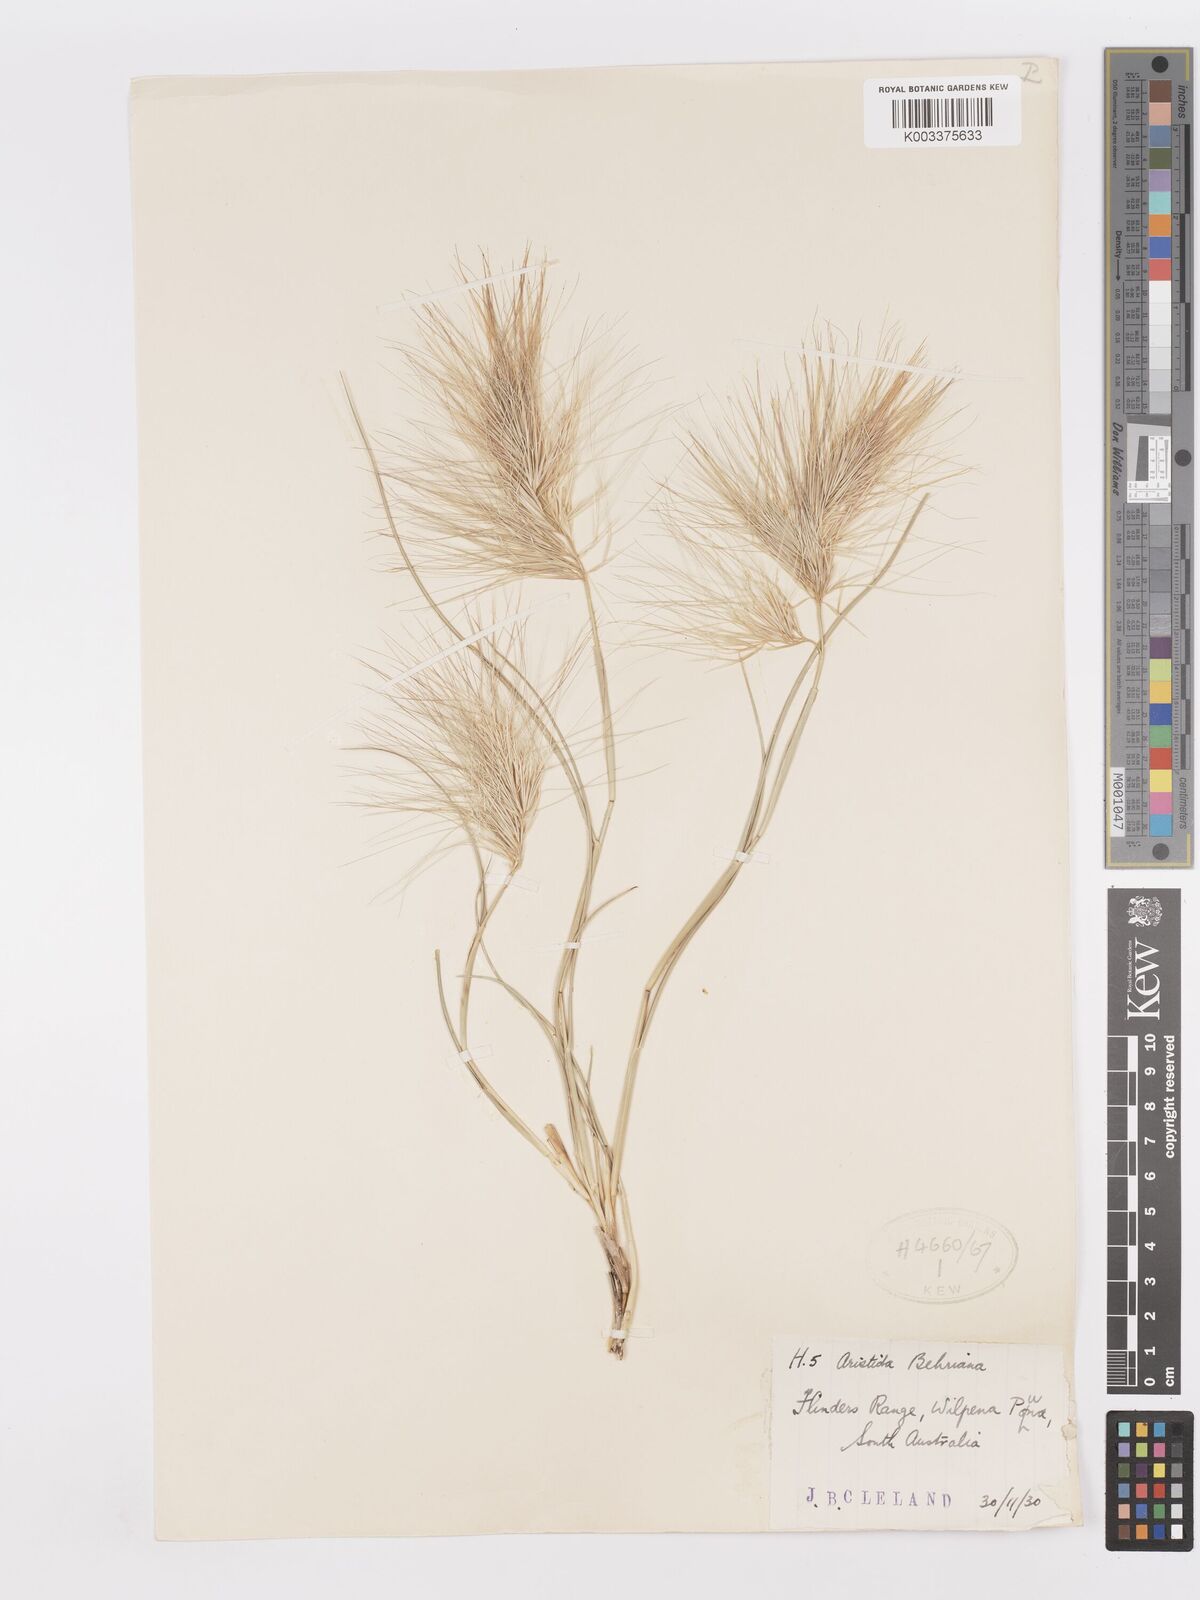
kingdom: Plantae
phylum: Tracheophyta
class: Liliopsida
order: Poales
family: Poaceae
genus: Aristida
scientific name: Aristida behriana
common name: Long-awn wire grass
